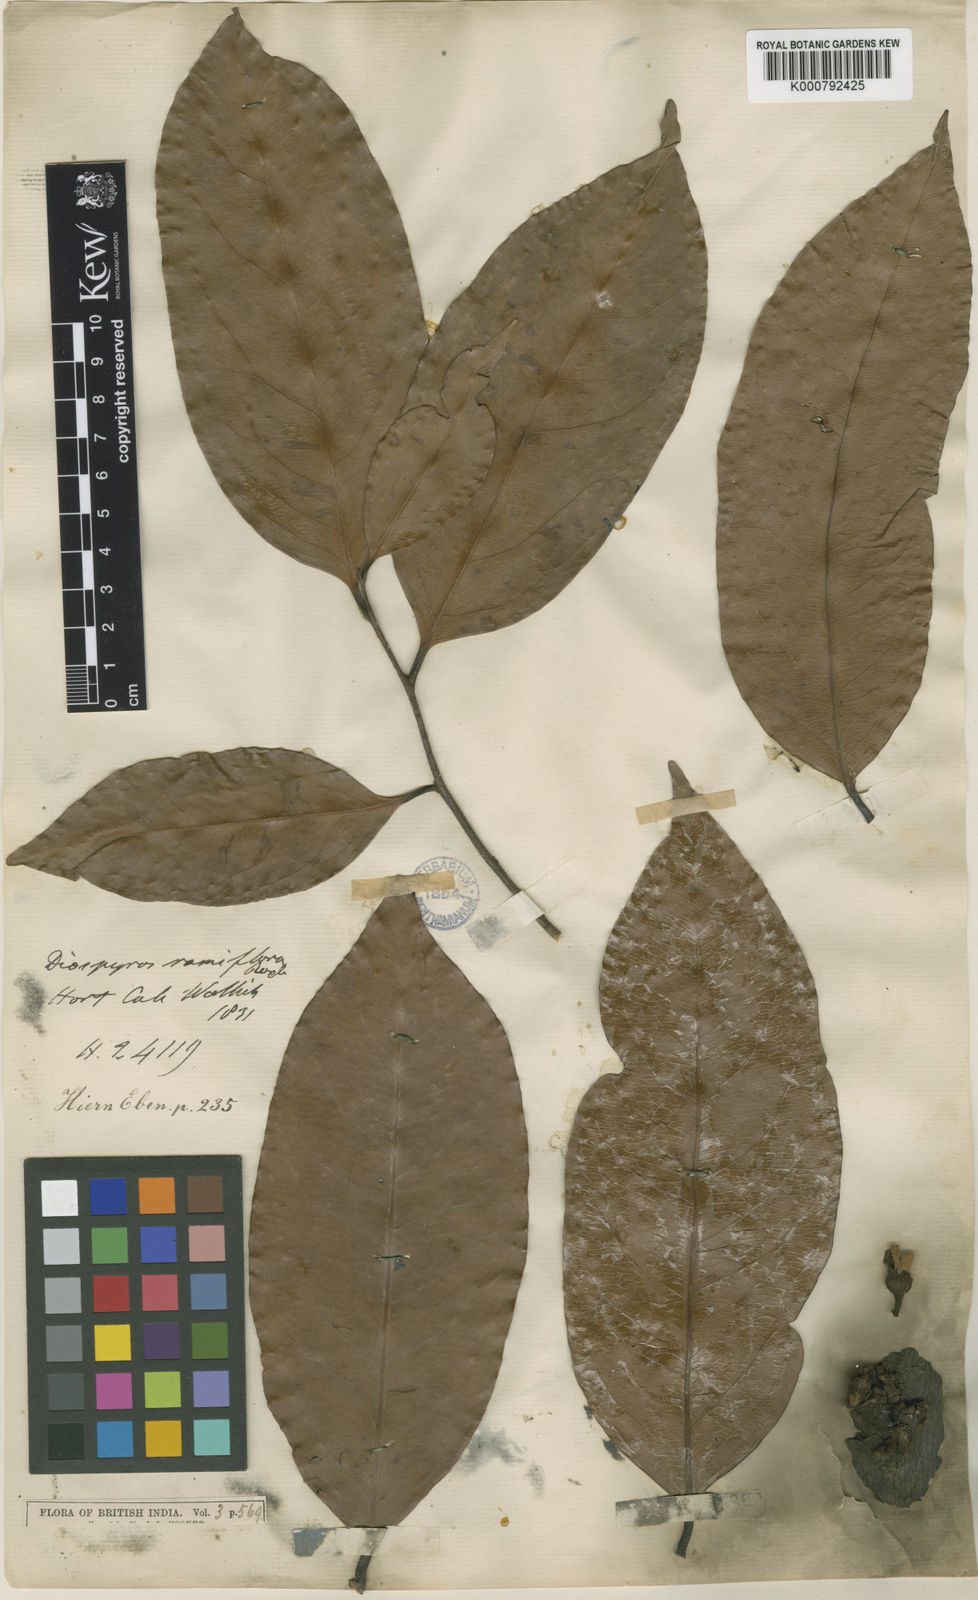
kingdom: Plantae
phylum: Tracheophyta
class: Magnoliopsida
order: Ericales
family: Ebenaceae
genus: Diospyros
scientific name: Diospyros ramiflora
